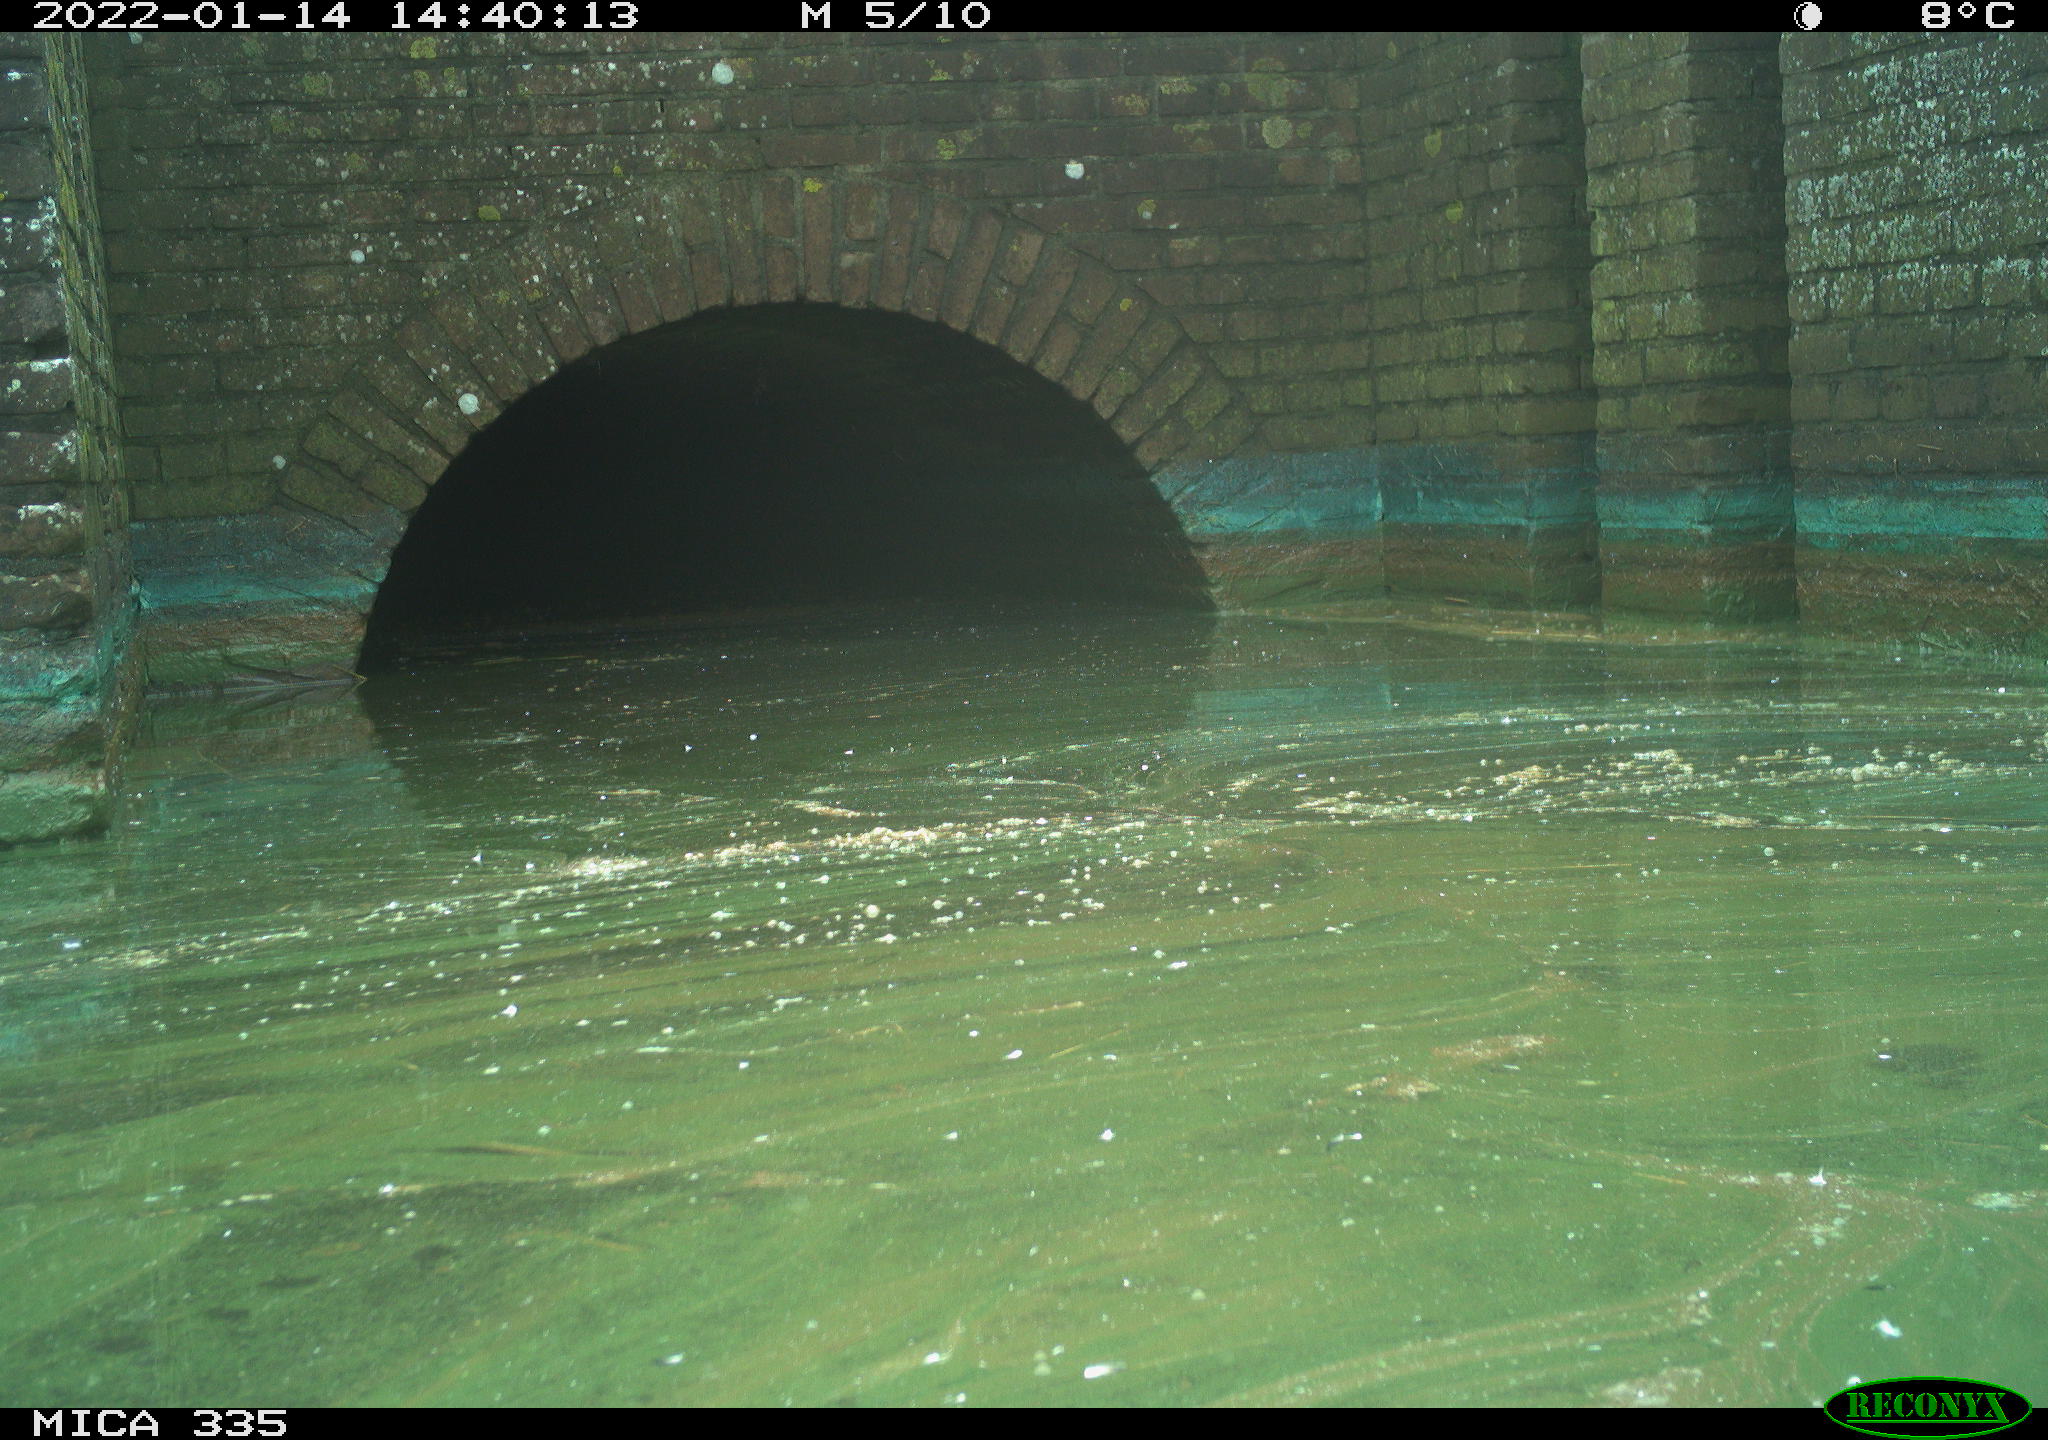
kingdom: Animalia
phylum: Chordata
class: Aves
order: Gruiformes
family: Rallidae
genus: Fulica
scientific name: Fulica atra
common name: Eurasian coot
